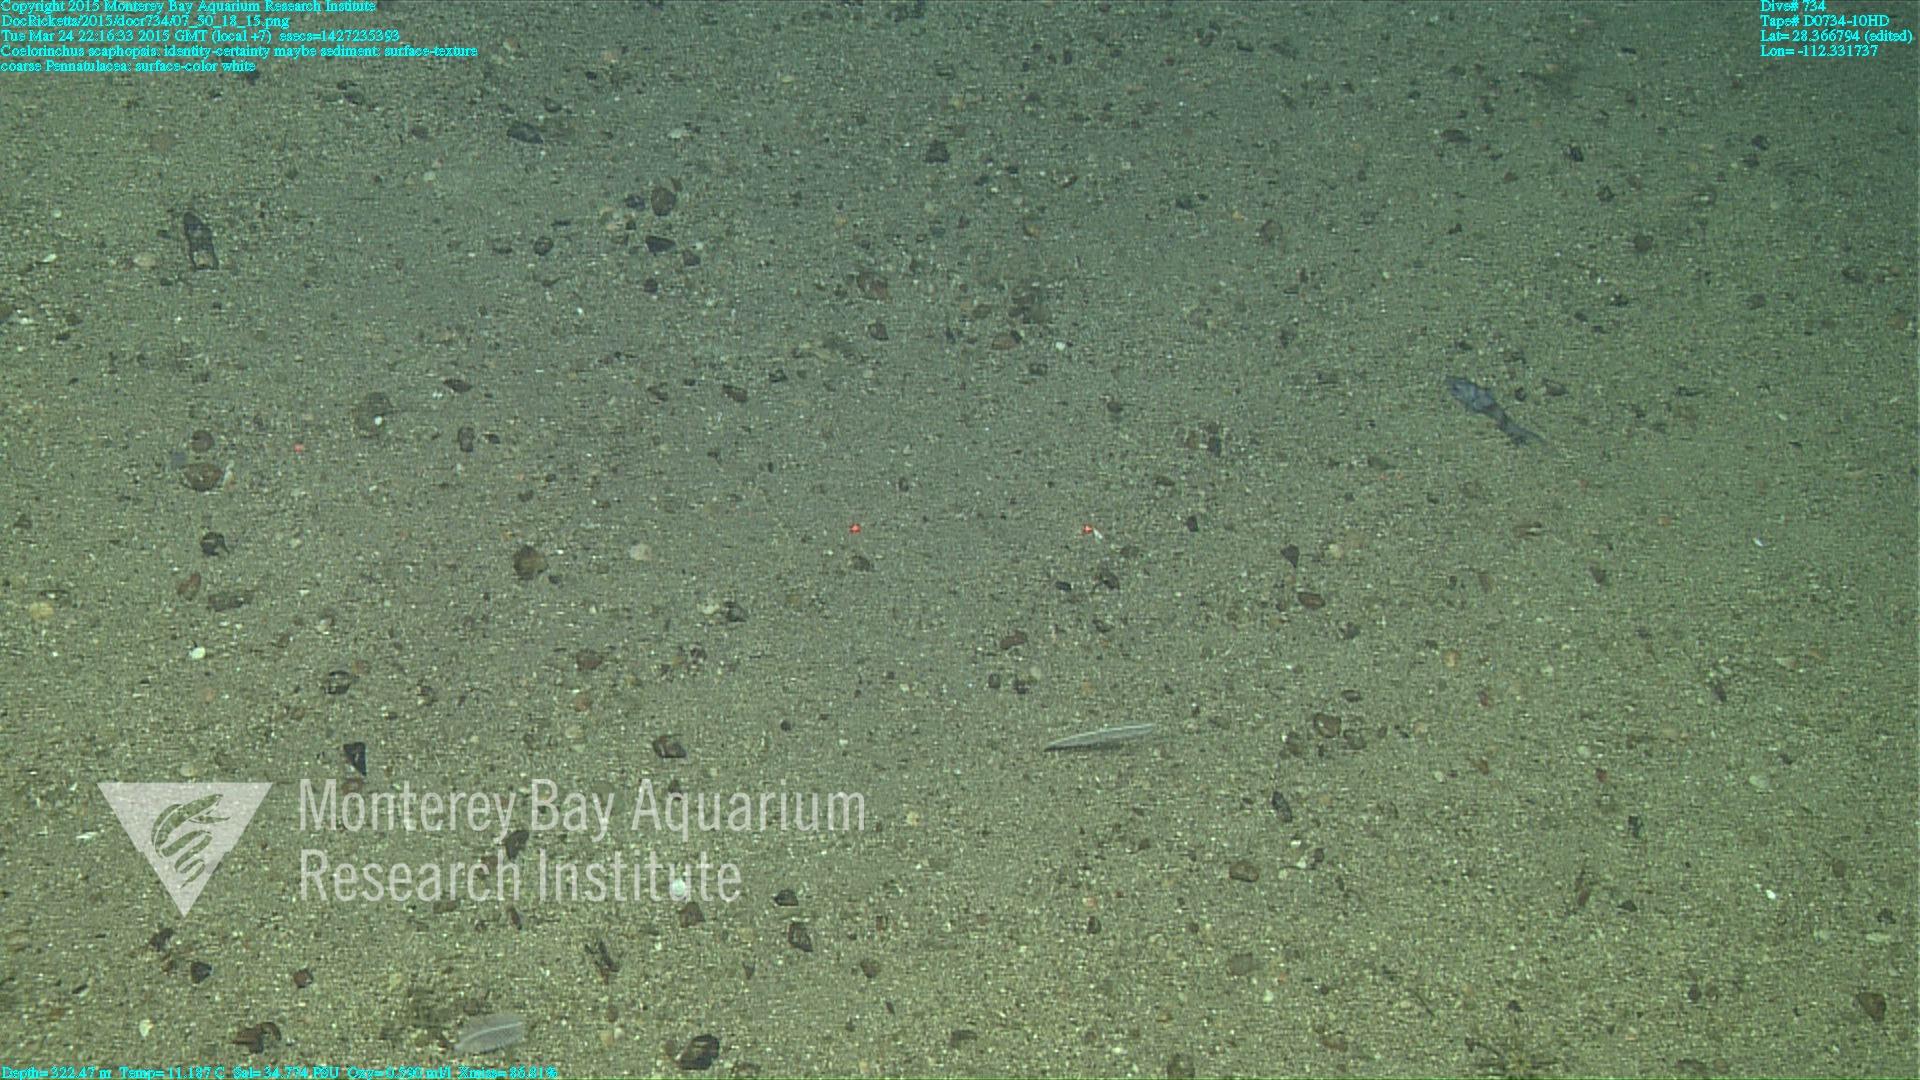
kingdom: Animalia
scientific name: Animalia
